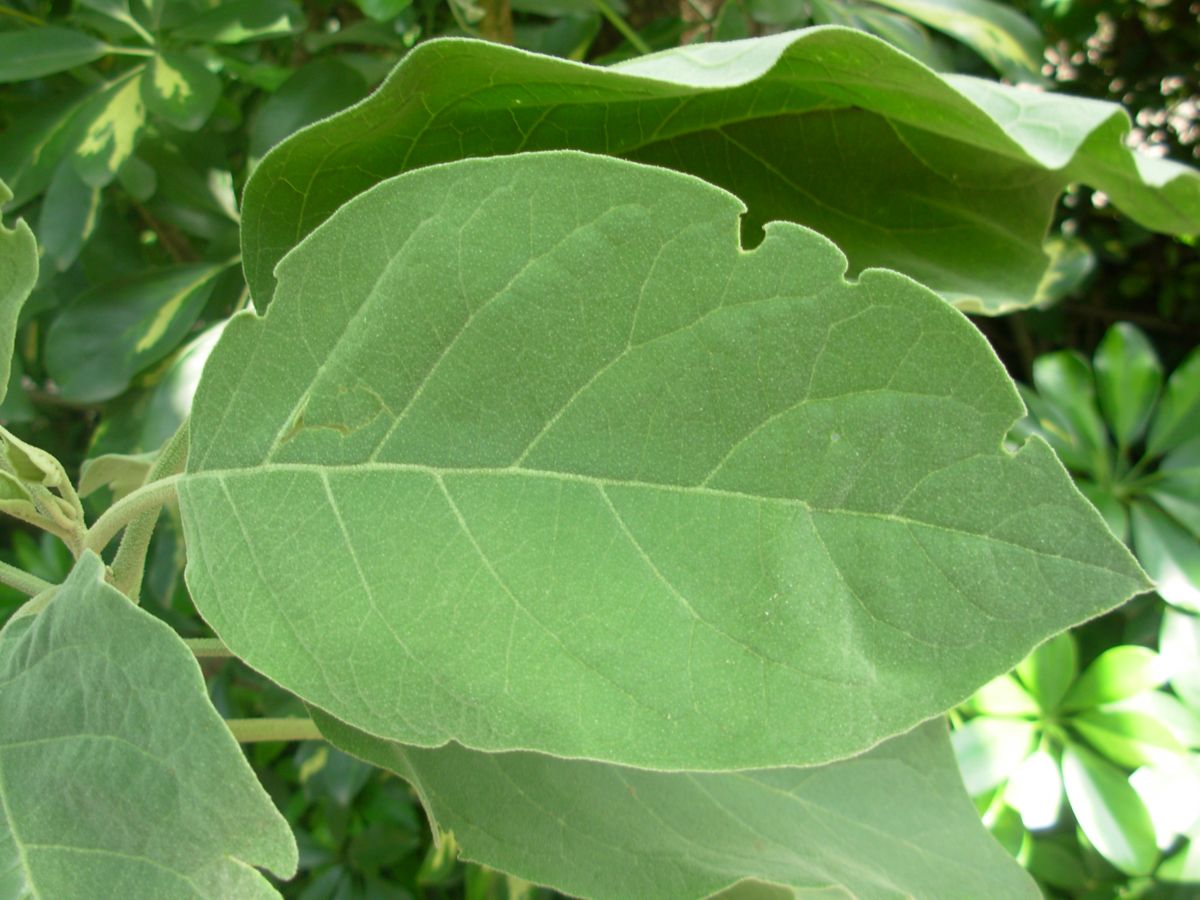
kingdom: Plantae
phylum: Tracheophyta
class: Magnoliopsida
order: Solanales
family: Solanaceae
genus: Solanum
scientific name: Solanum erianthum
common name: Tobacco-tree
